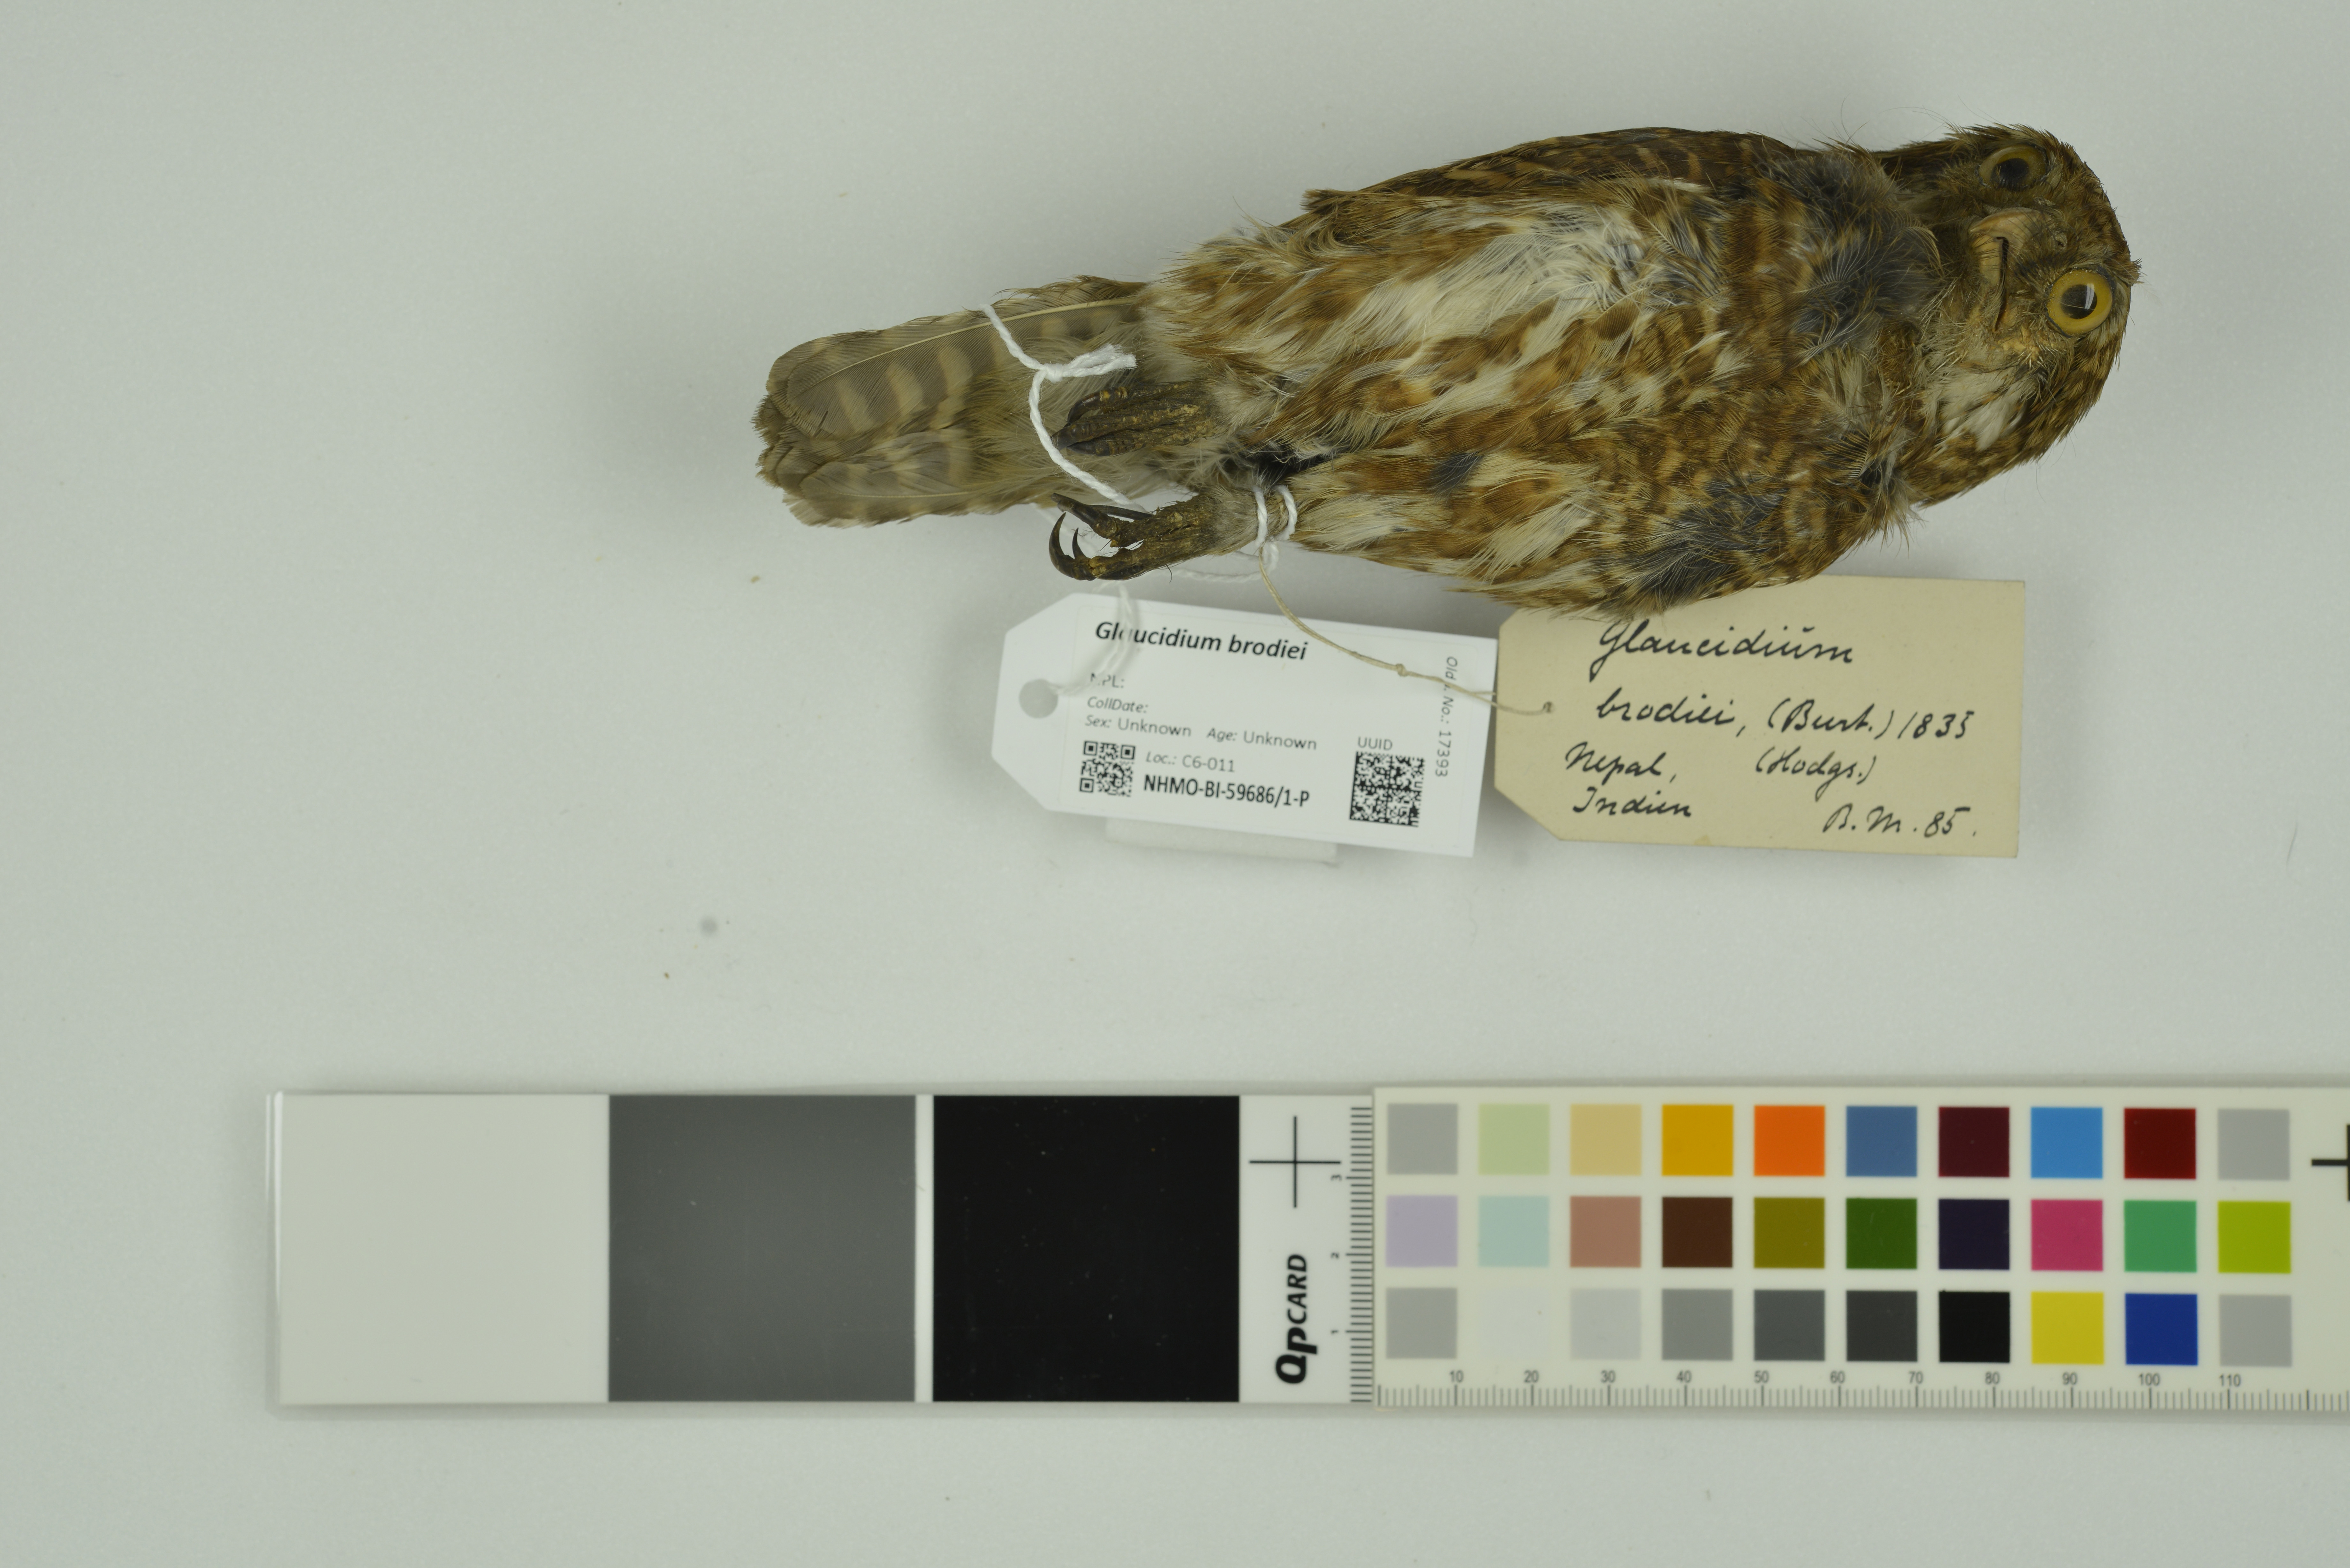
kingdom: Animalia
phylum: Chordata
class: Aves
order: Strigiformes
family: Strigidae
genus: Glaucidium
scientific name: Glaucidium brodiei
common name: Collared owlet
